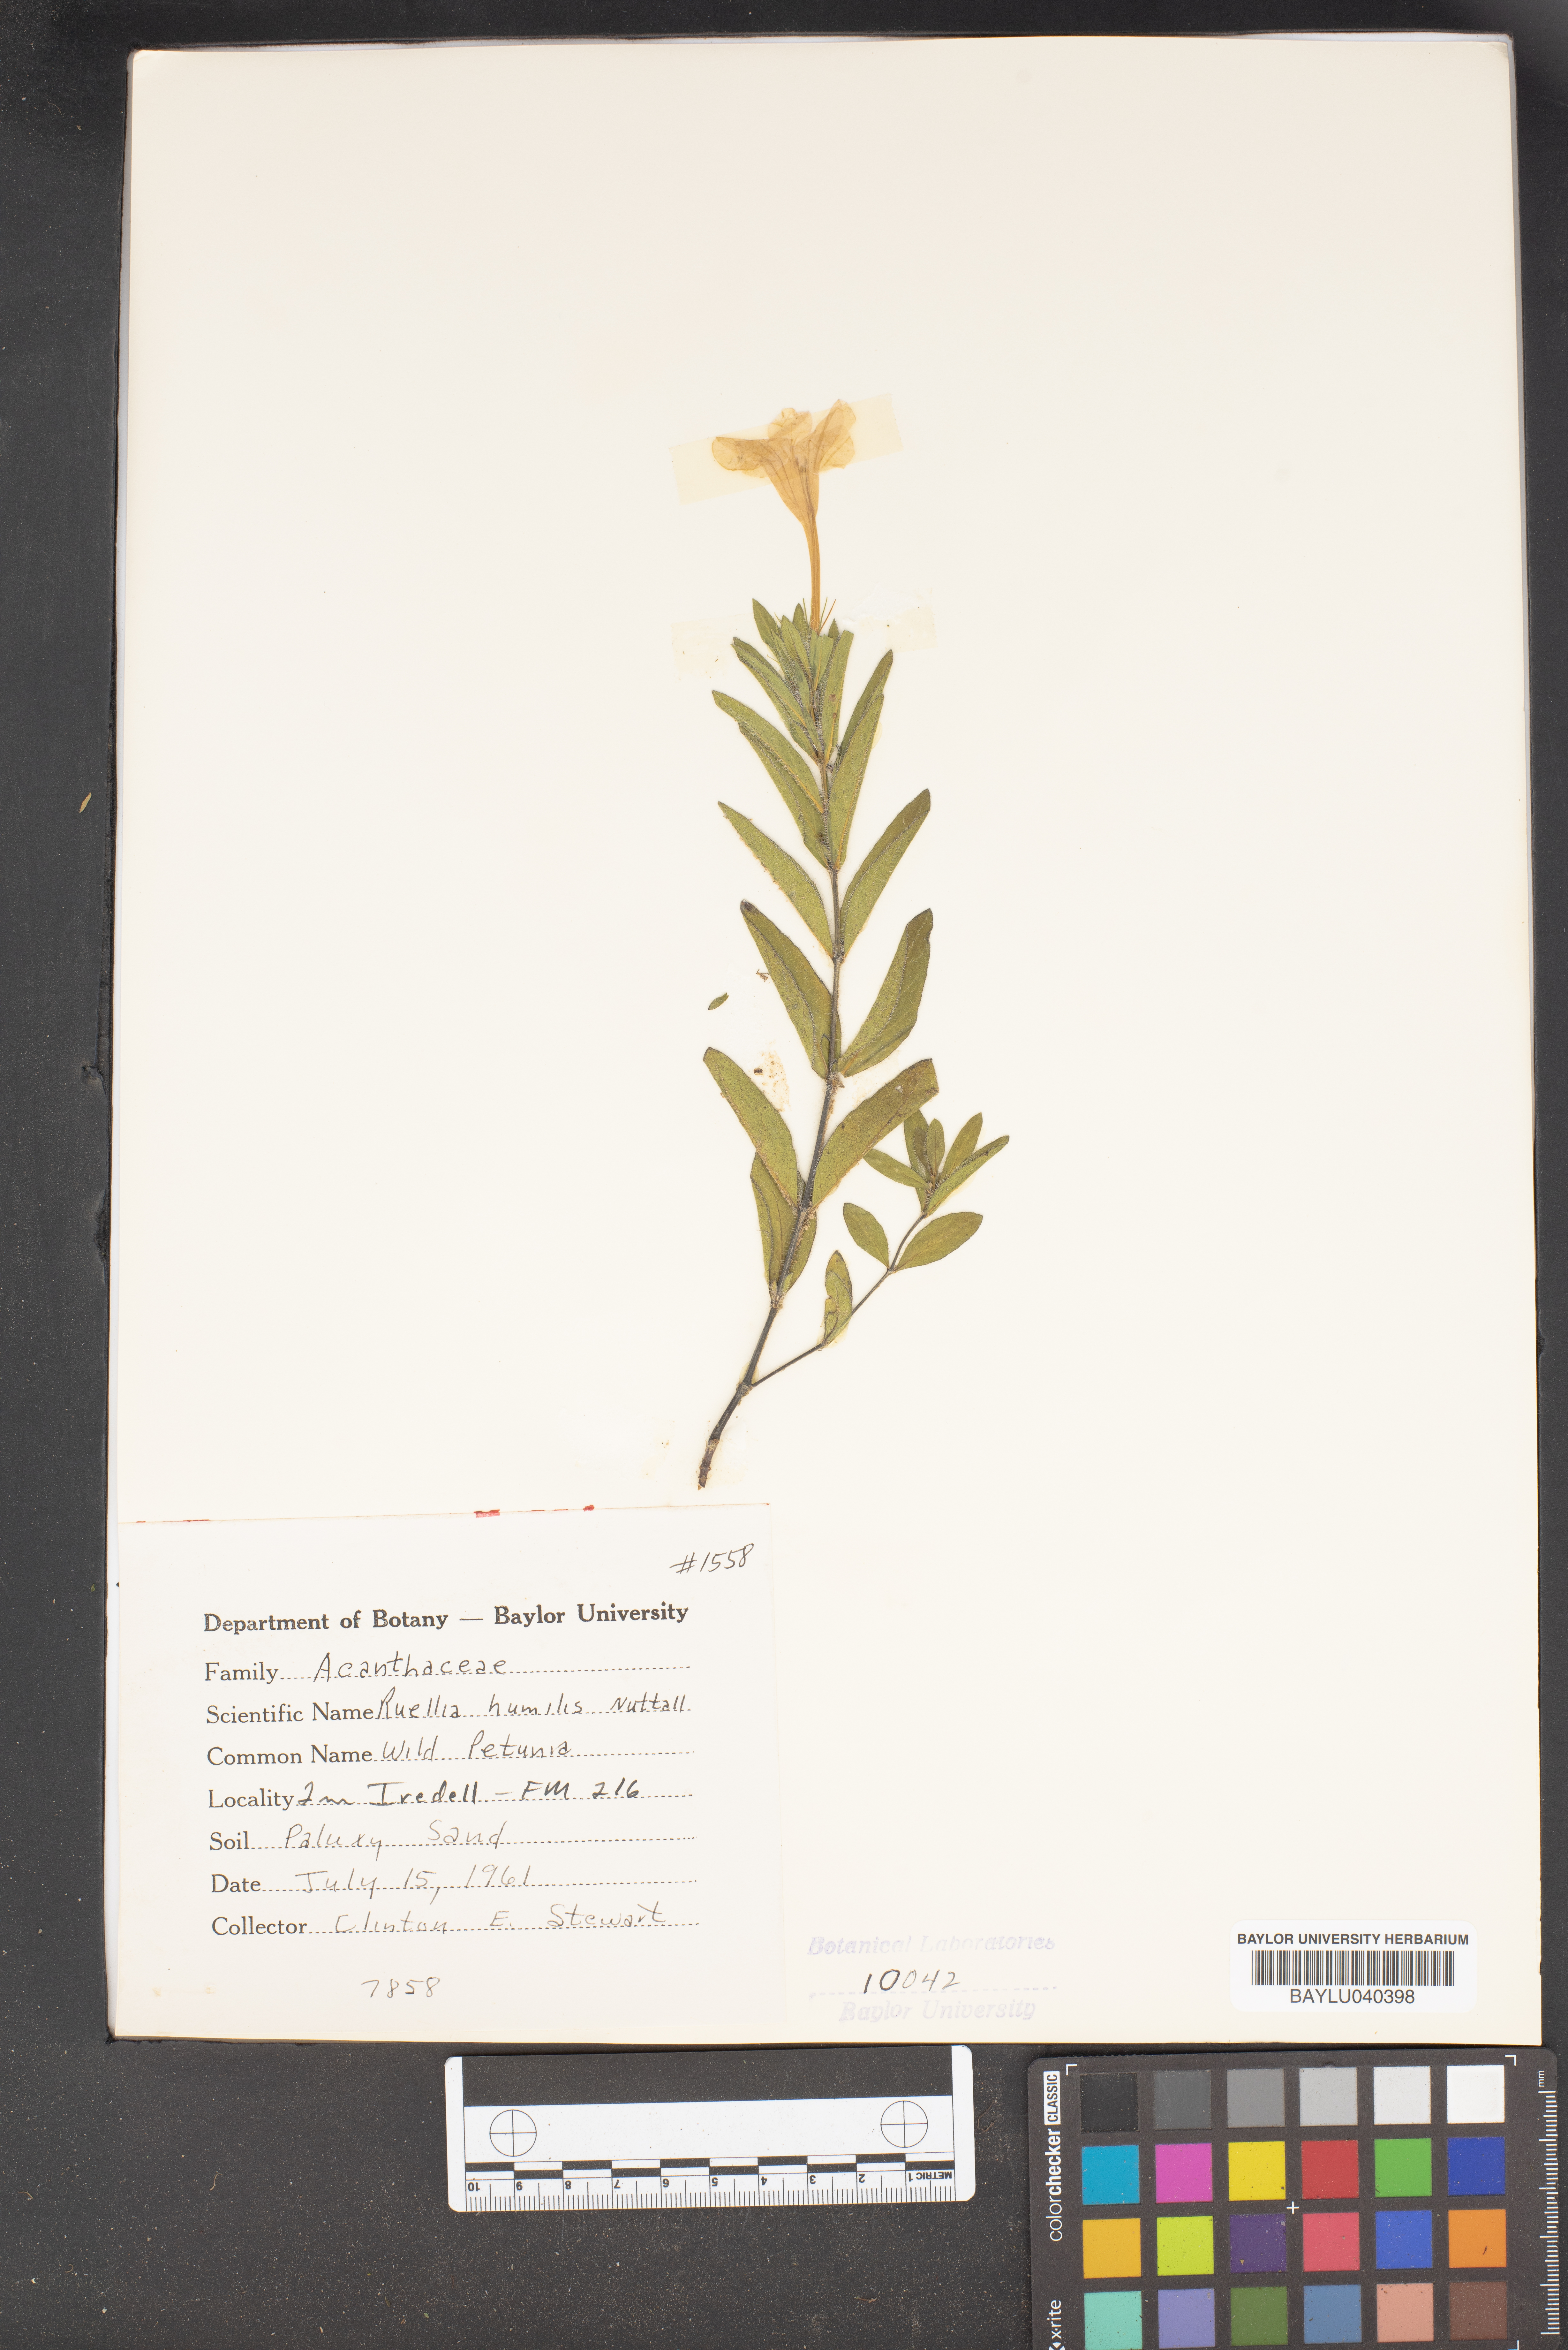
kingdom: Plantae
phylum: Tracheophyta
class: Magnoliopsida
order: Lamiales
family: Acanthaceae
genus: Ruellia
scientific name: Ruellia humilis
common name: Fringe-leaf ruellia
